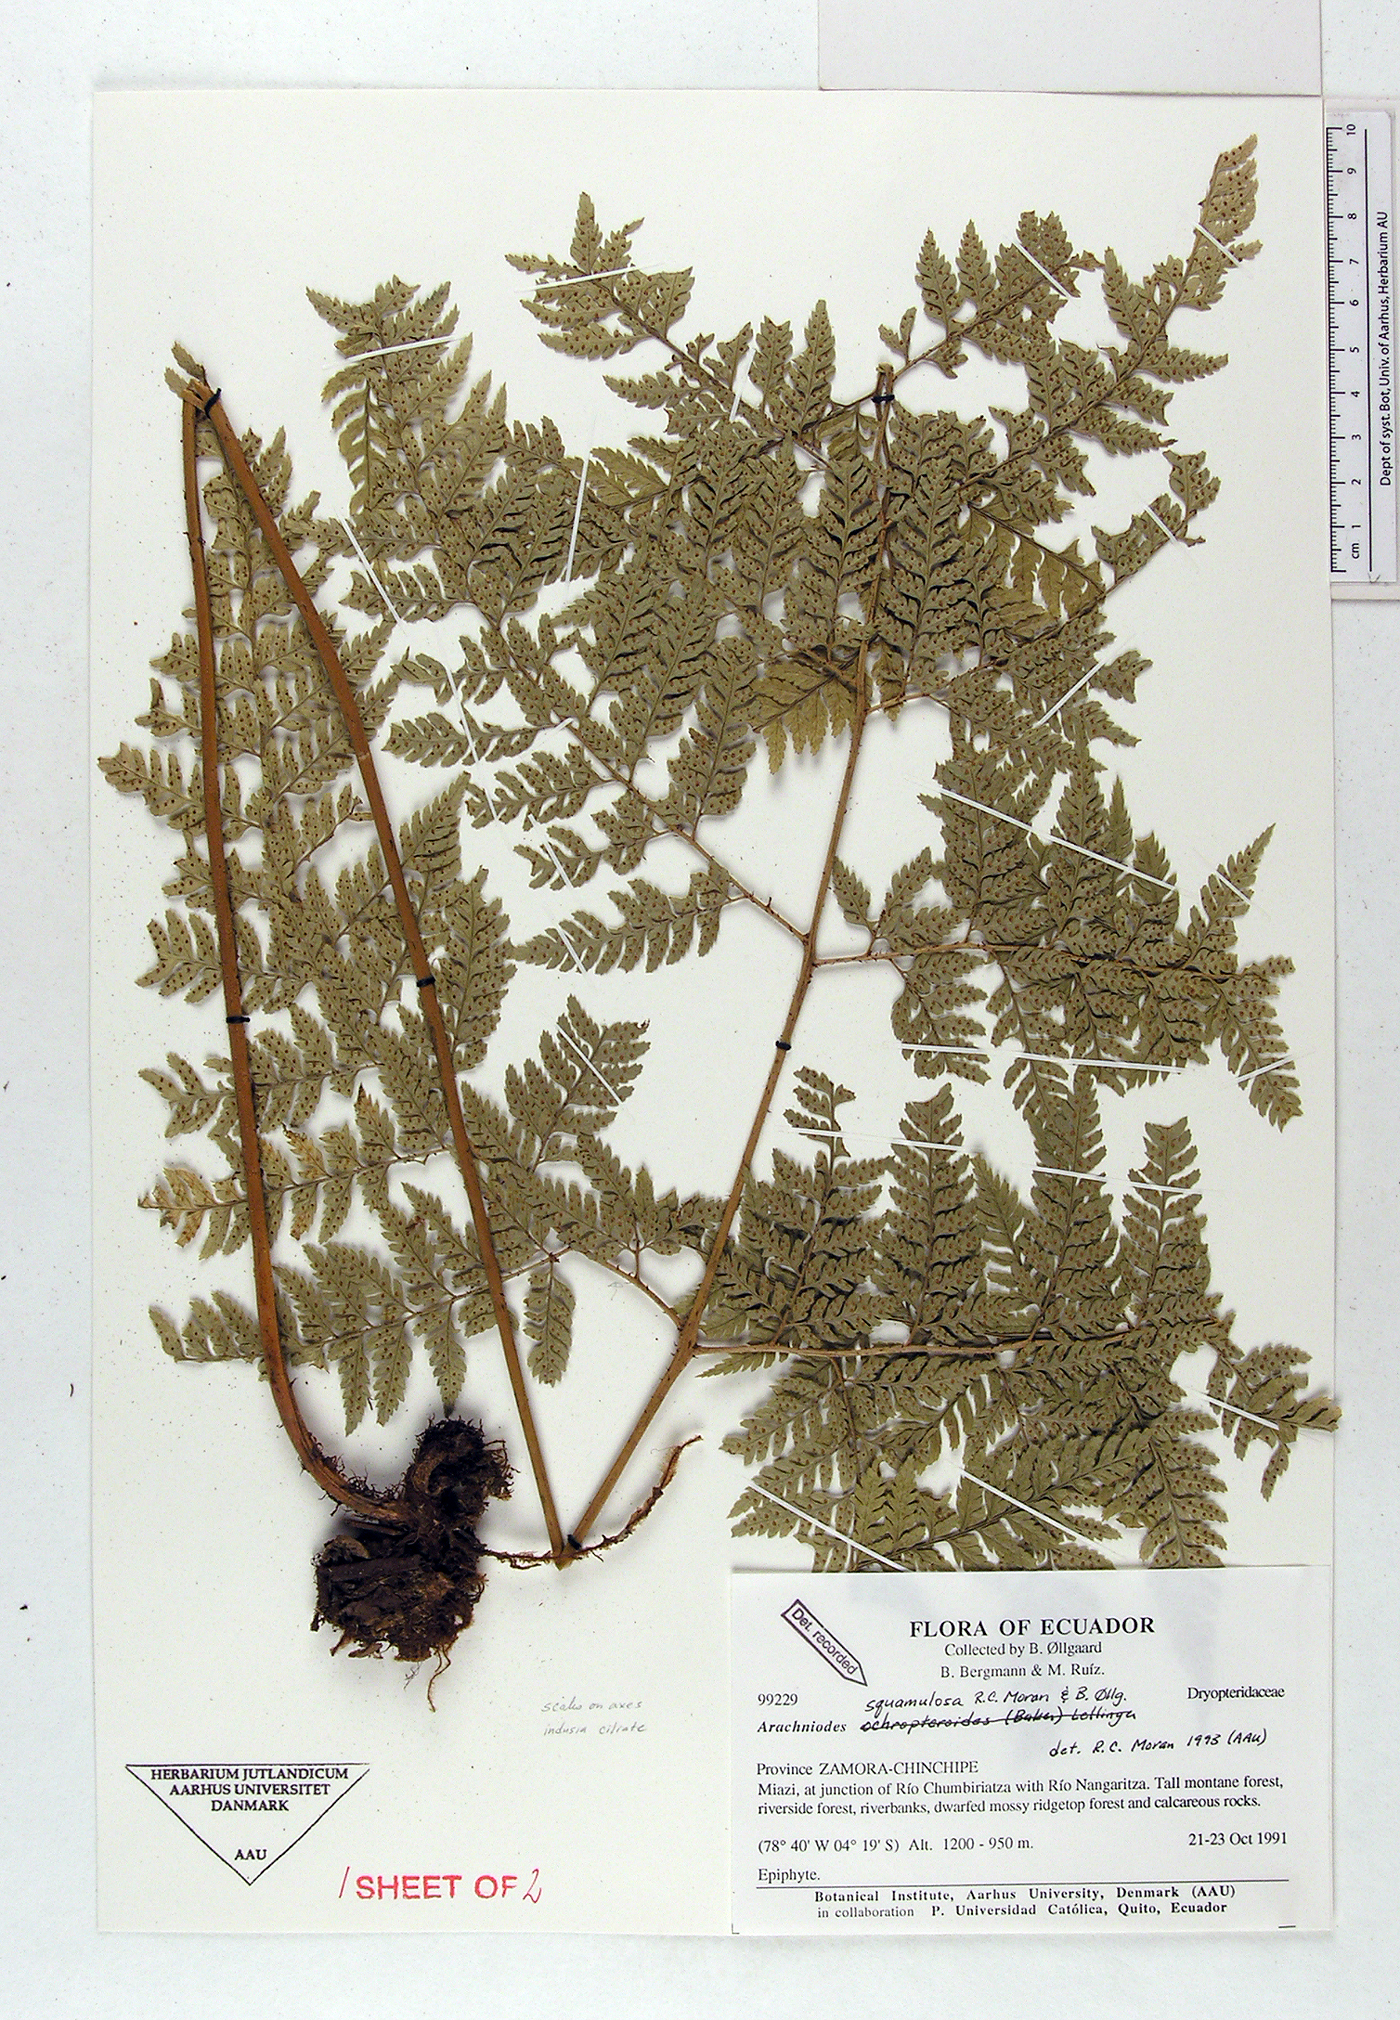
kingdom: Plantae
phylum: Tracheophyta
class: Polypodiopsida
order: Polypodiales
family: Dryopteridaceae
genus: Arachniodes
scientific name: Arachniodes squamulosa
